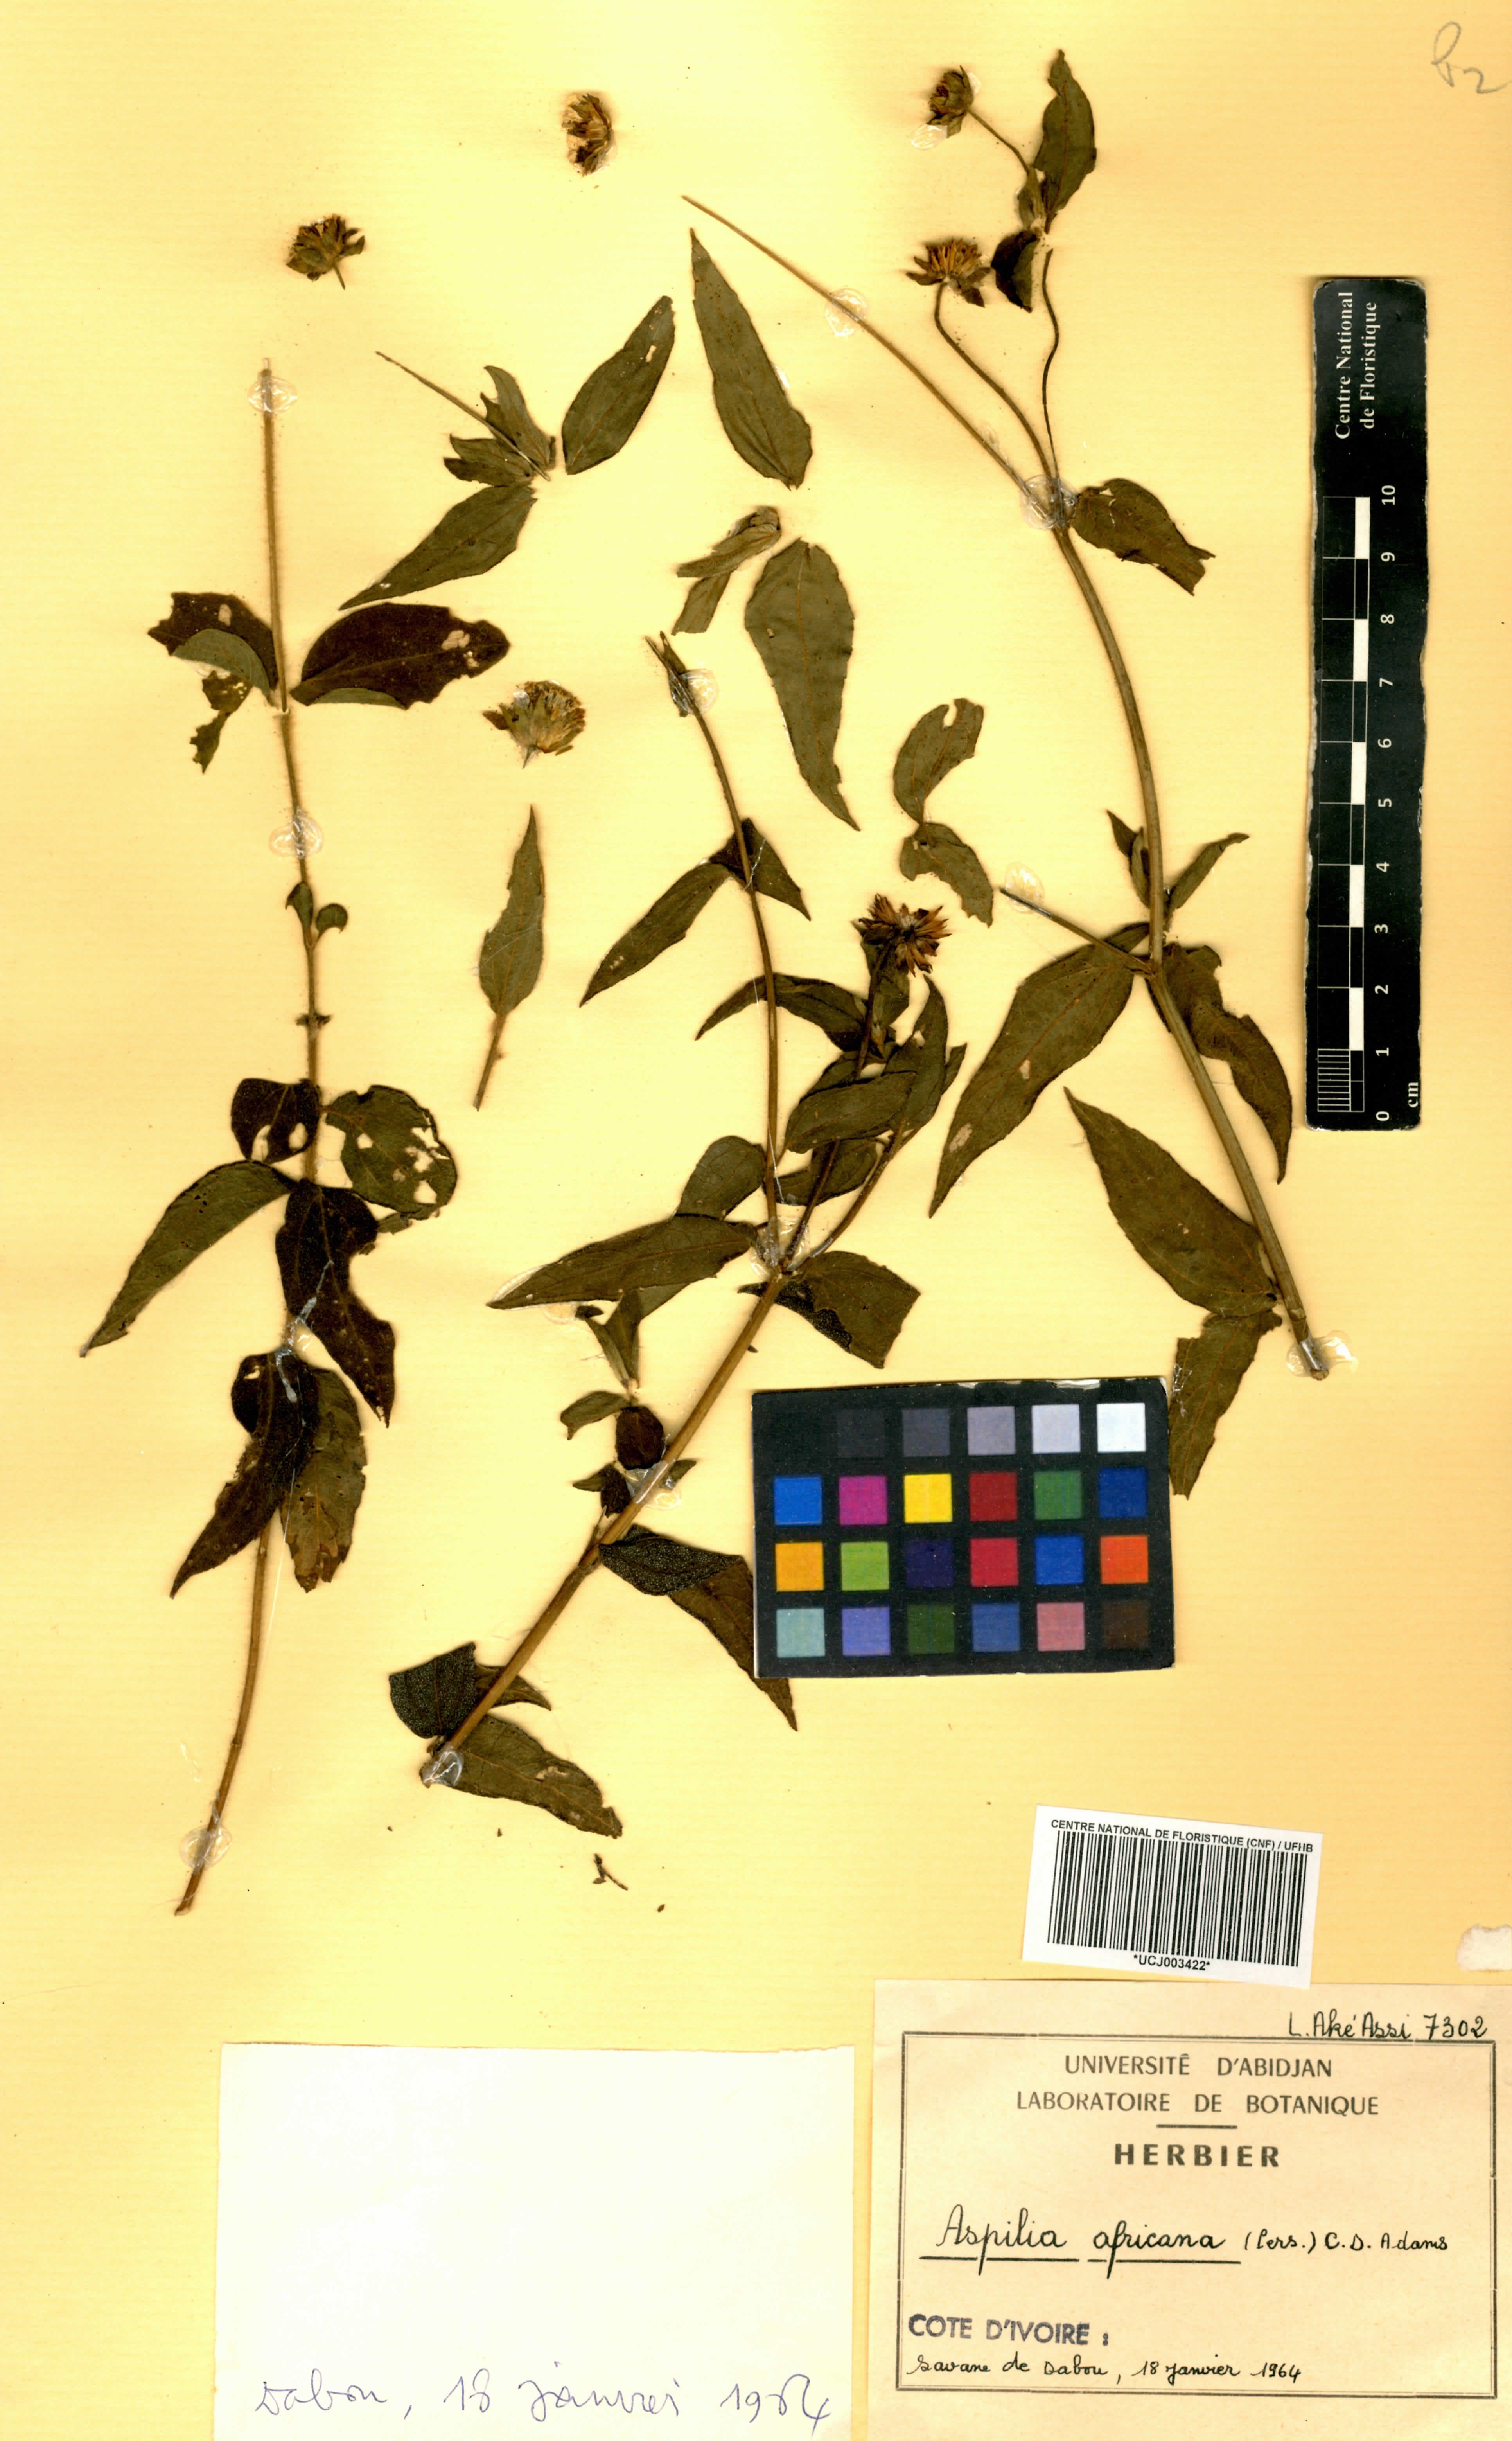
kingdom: Plantae
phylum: Tracheophyta
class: Magnoliopsida
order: Asterales
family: Asteraceae
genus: Aspilia
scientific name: Aspilia africana
